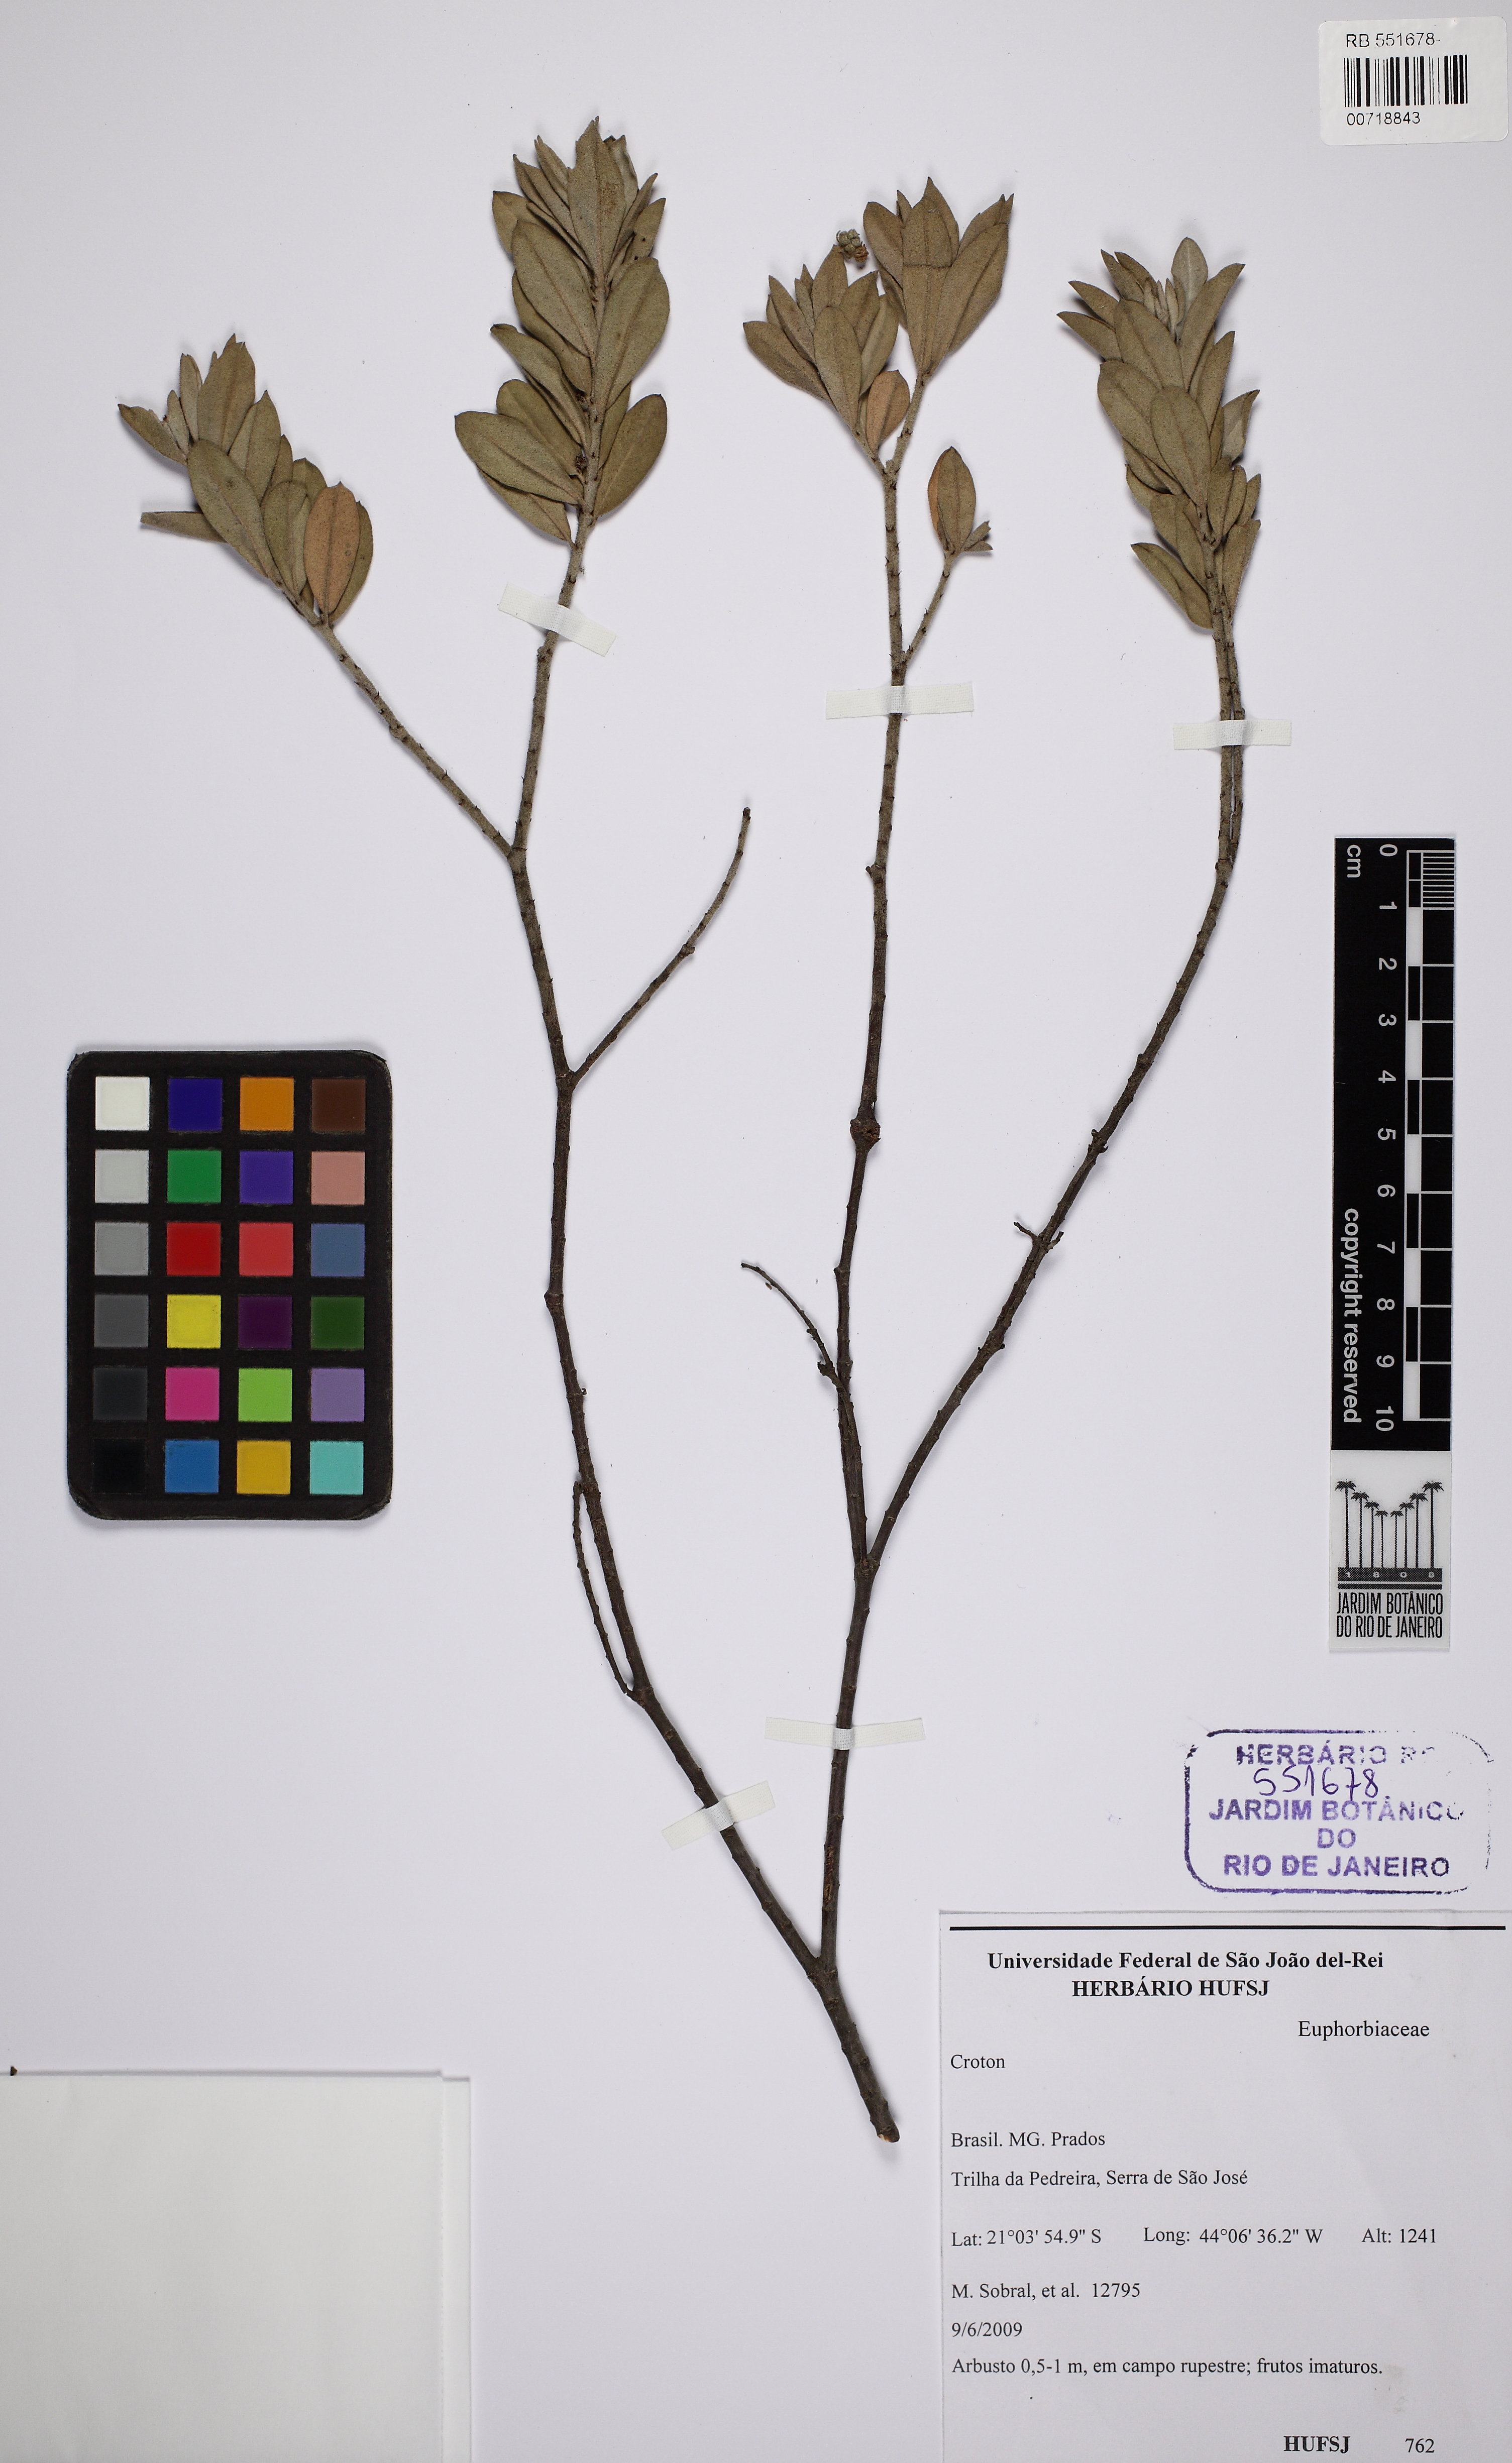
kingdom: Plantae
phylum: Tracheophyta
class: Magnoliopsida
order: Malpighiales
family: Euphorbiaceae
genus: Croton
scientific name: Croton josephina
